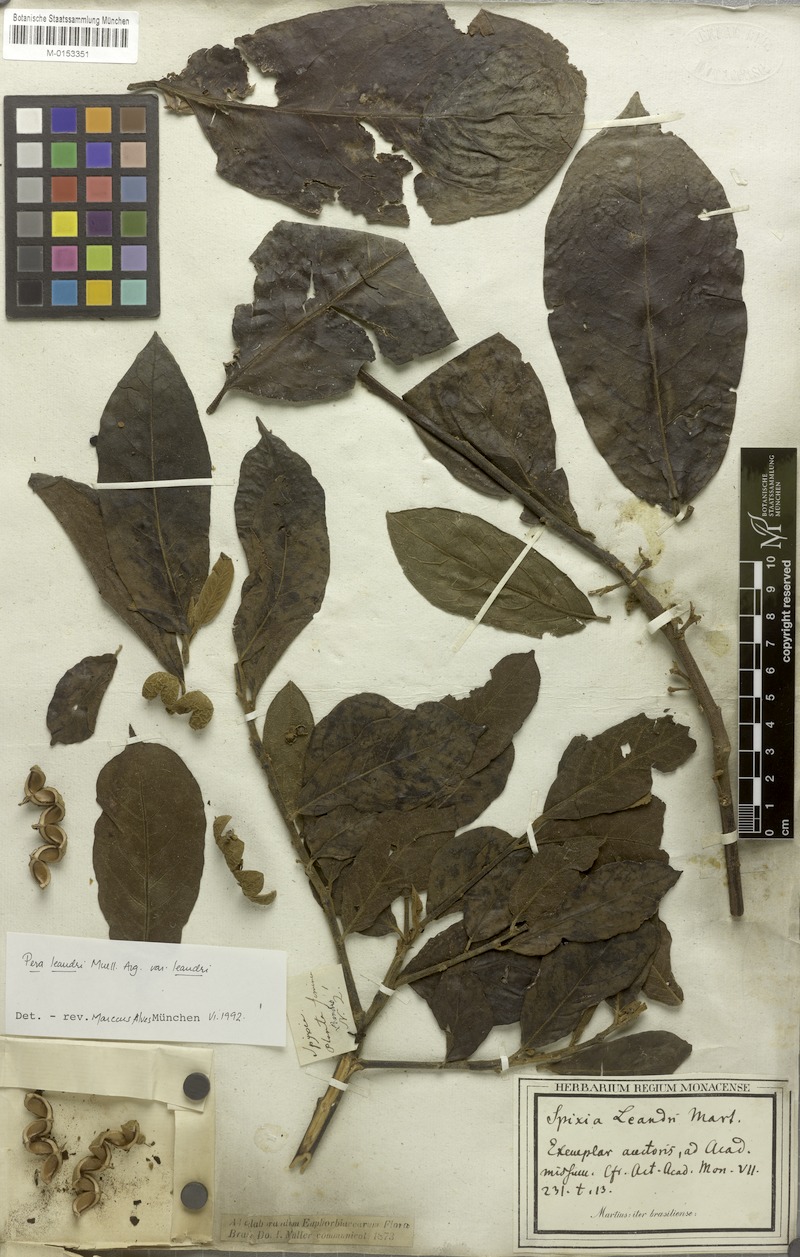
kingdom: Plantae
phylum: Tracheophyta
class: Magnoliopsida
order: Malpighiales
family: Peraceae
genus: Pera
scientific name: Pera heteranthera
